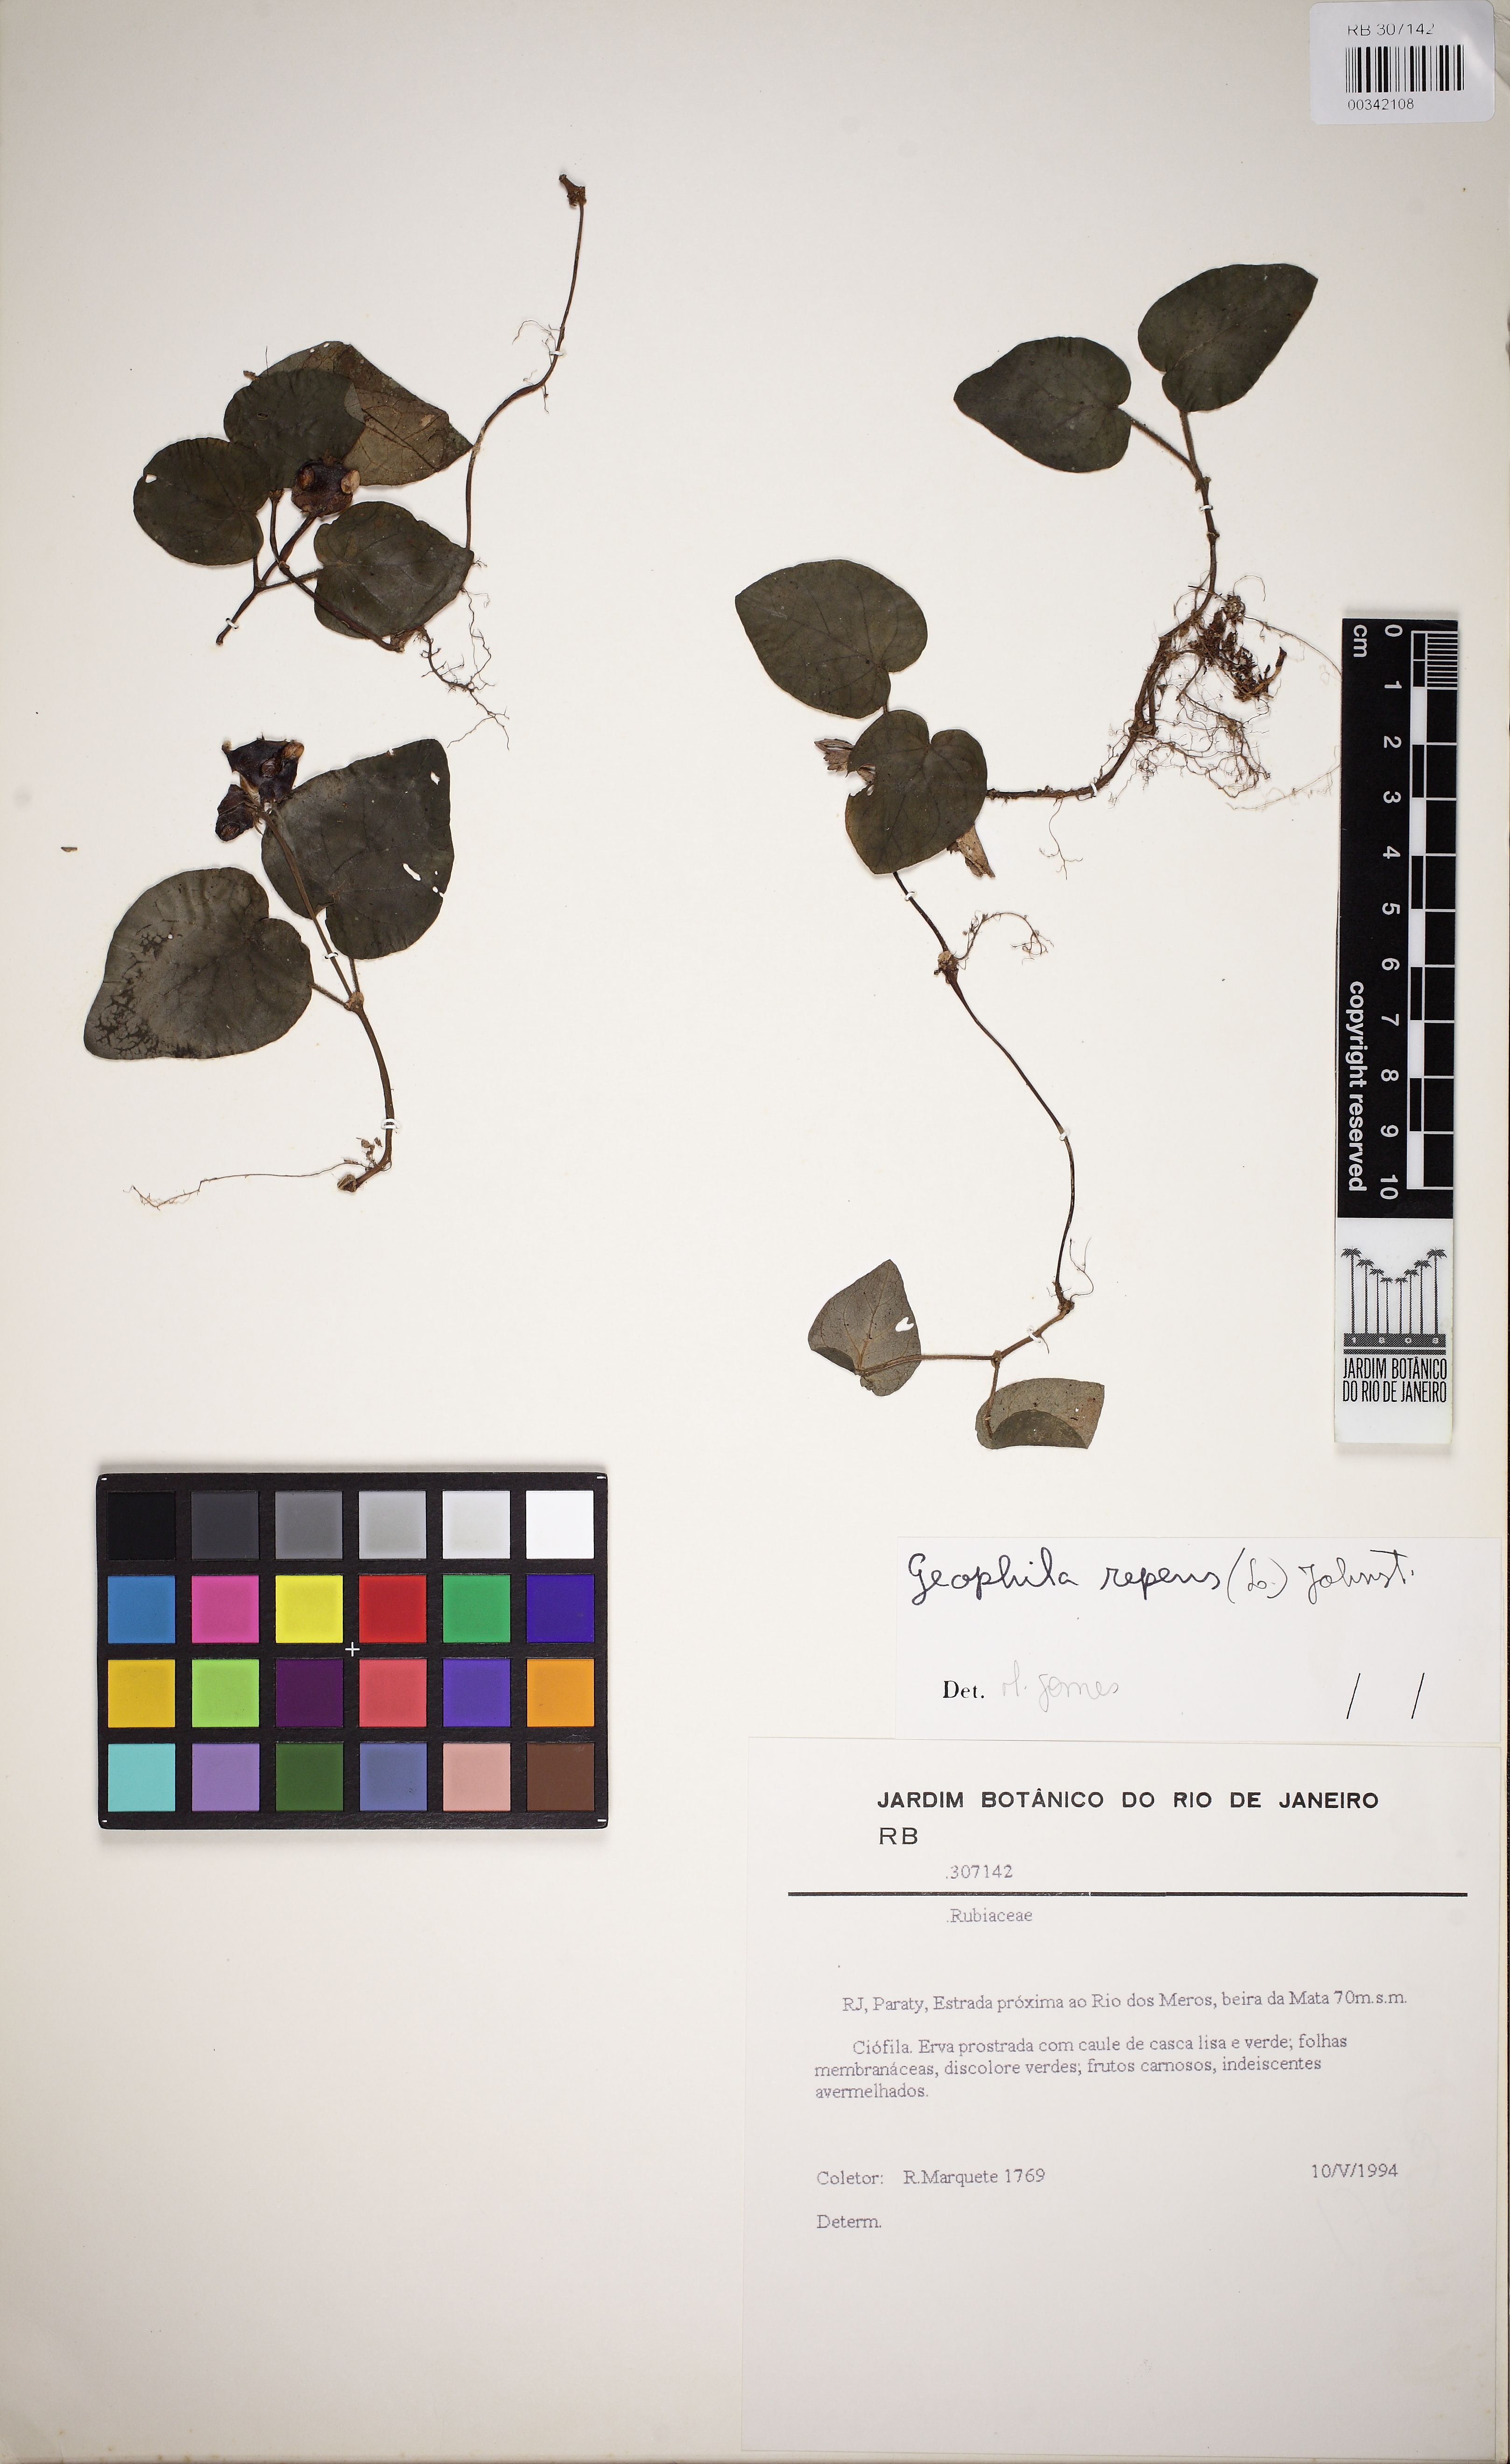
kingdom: Plantae
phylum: Tracheophyta
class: Magnoliopsida
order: Gentianales
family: Rubiaceae
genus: Geophila
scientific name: Geophila repens
